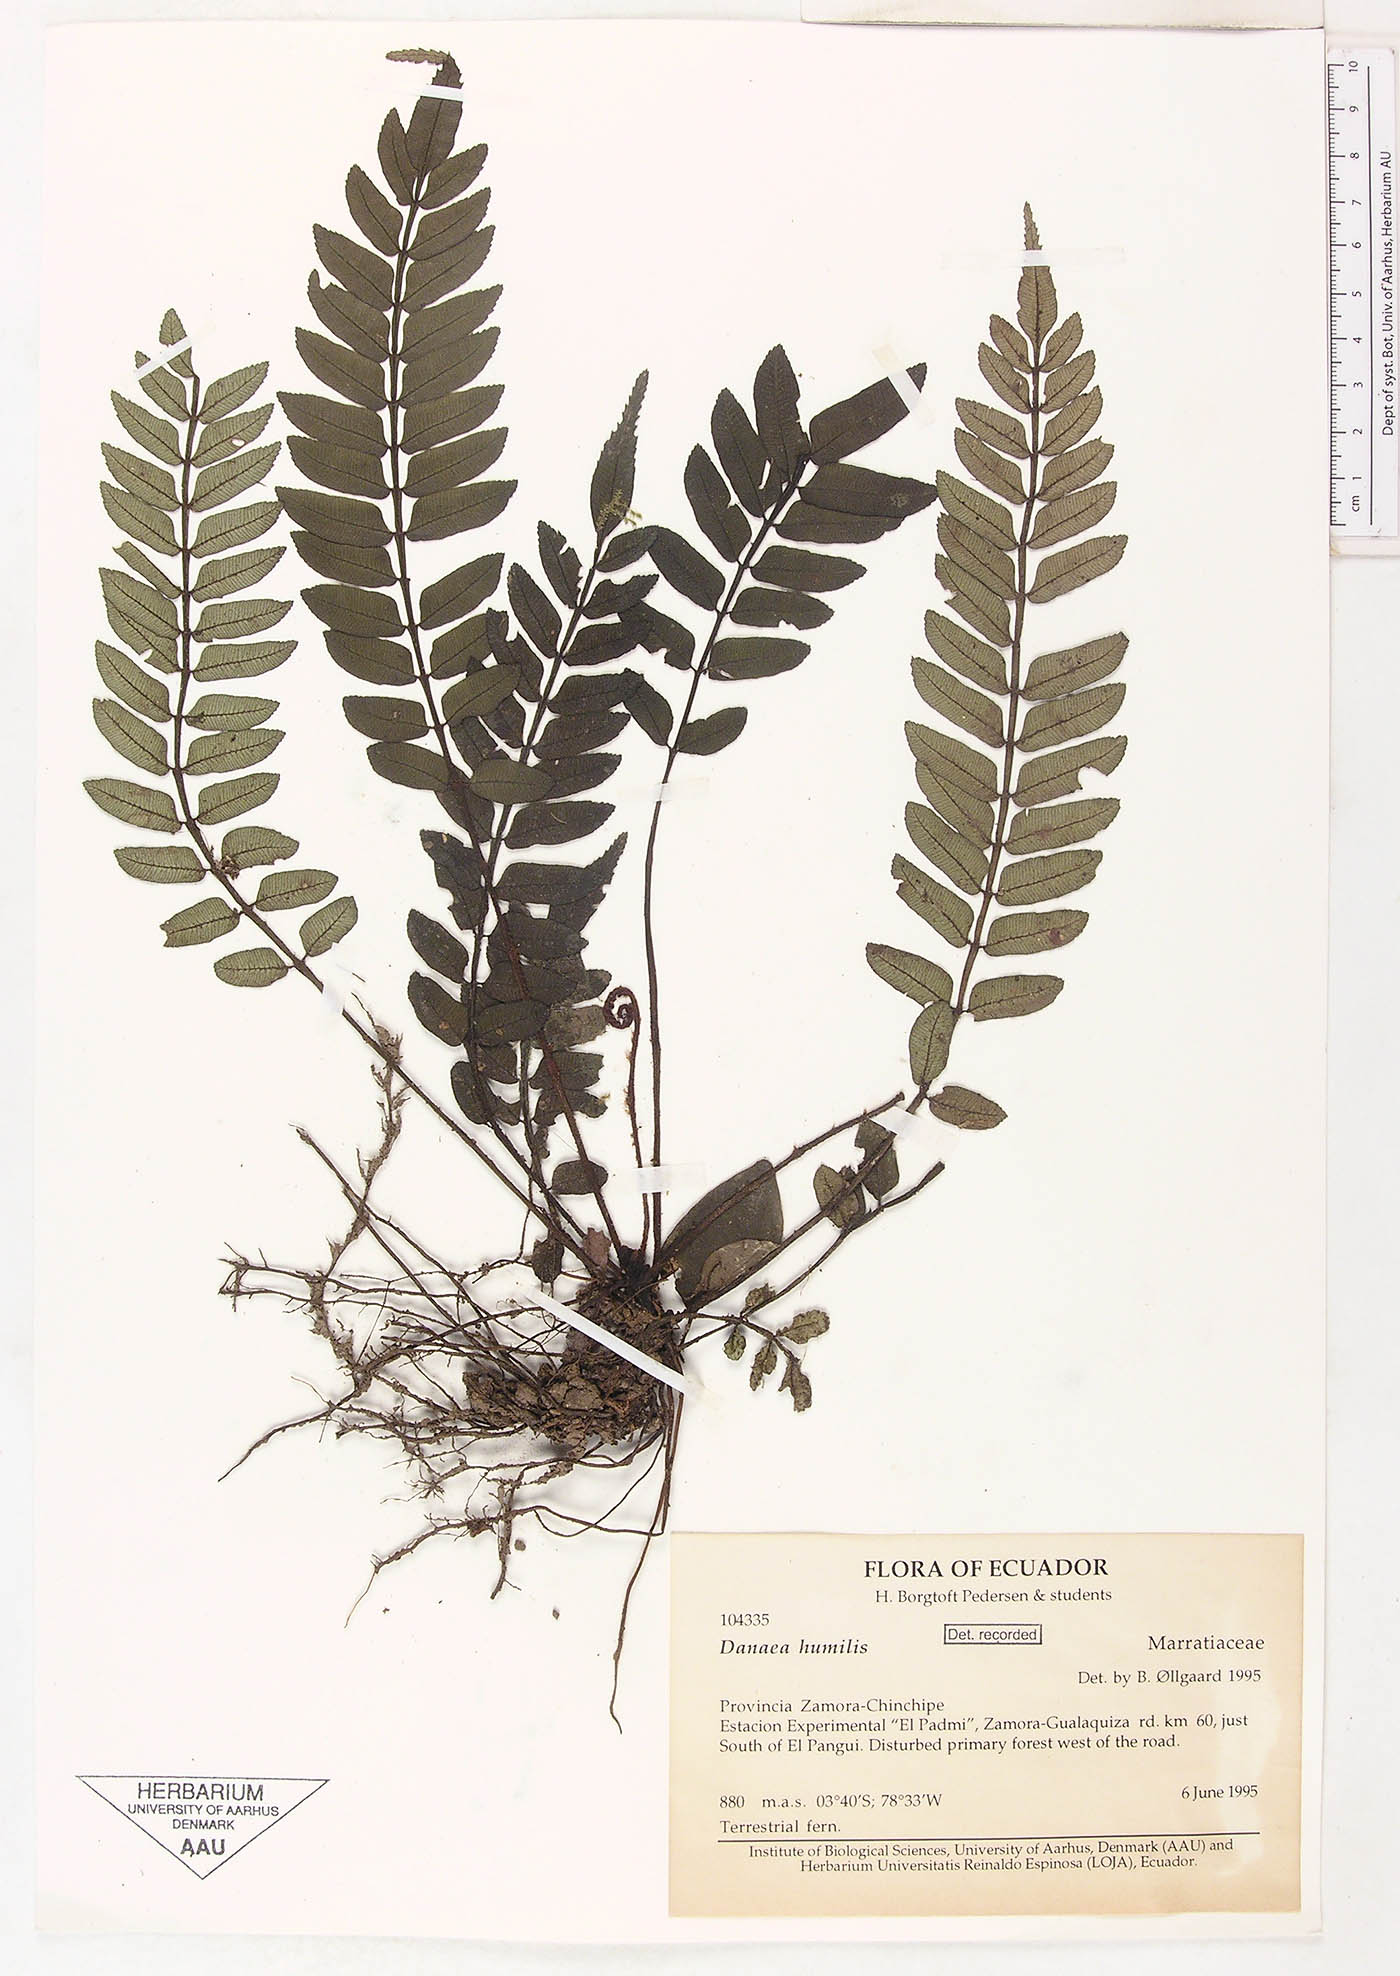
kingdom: Plantae
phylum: Tracheophyta
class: Polypodiopsida
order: Marattiales
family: Marattiaceae
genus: Danaea
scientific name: Danaea humilis
